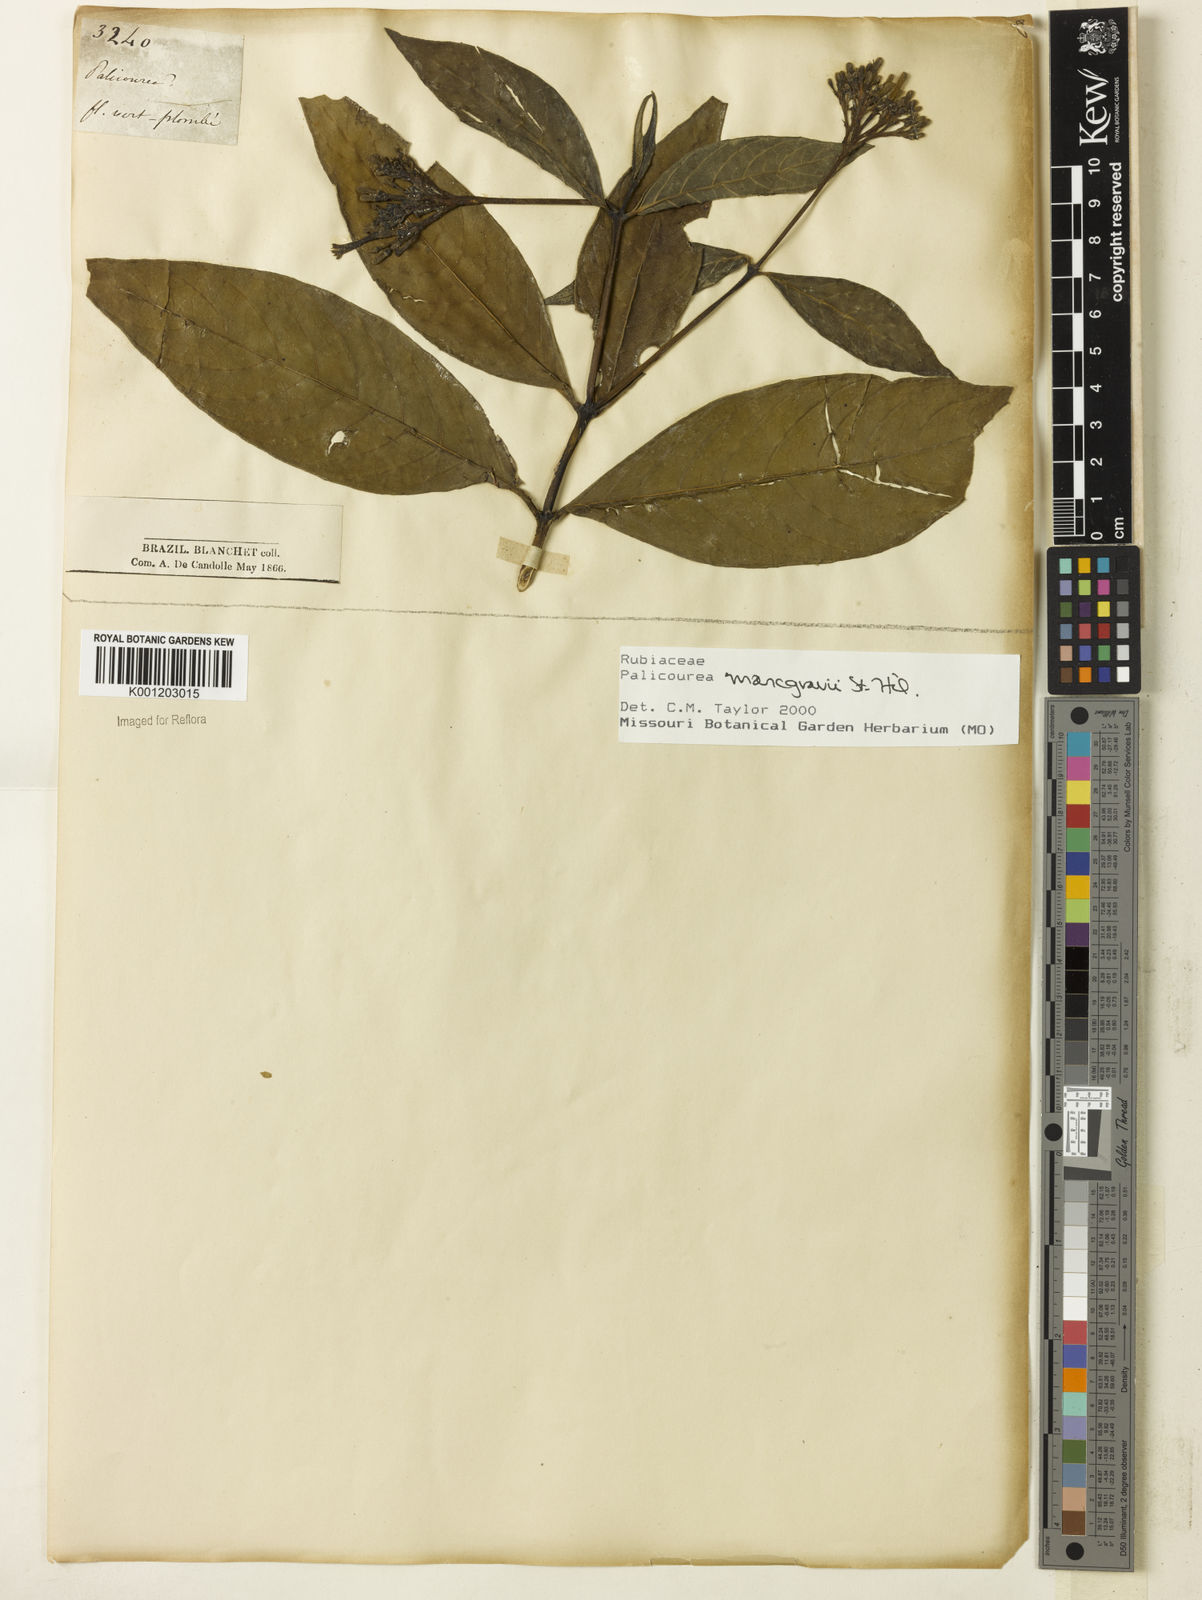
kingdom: Plantae
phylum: Tracheophyta
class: Magnoliopsida
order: Gentianales
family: Rubiaceae
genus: Palicourea
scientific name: Palicourea marcgravii
